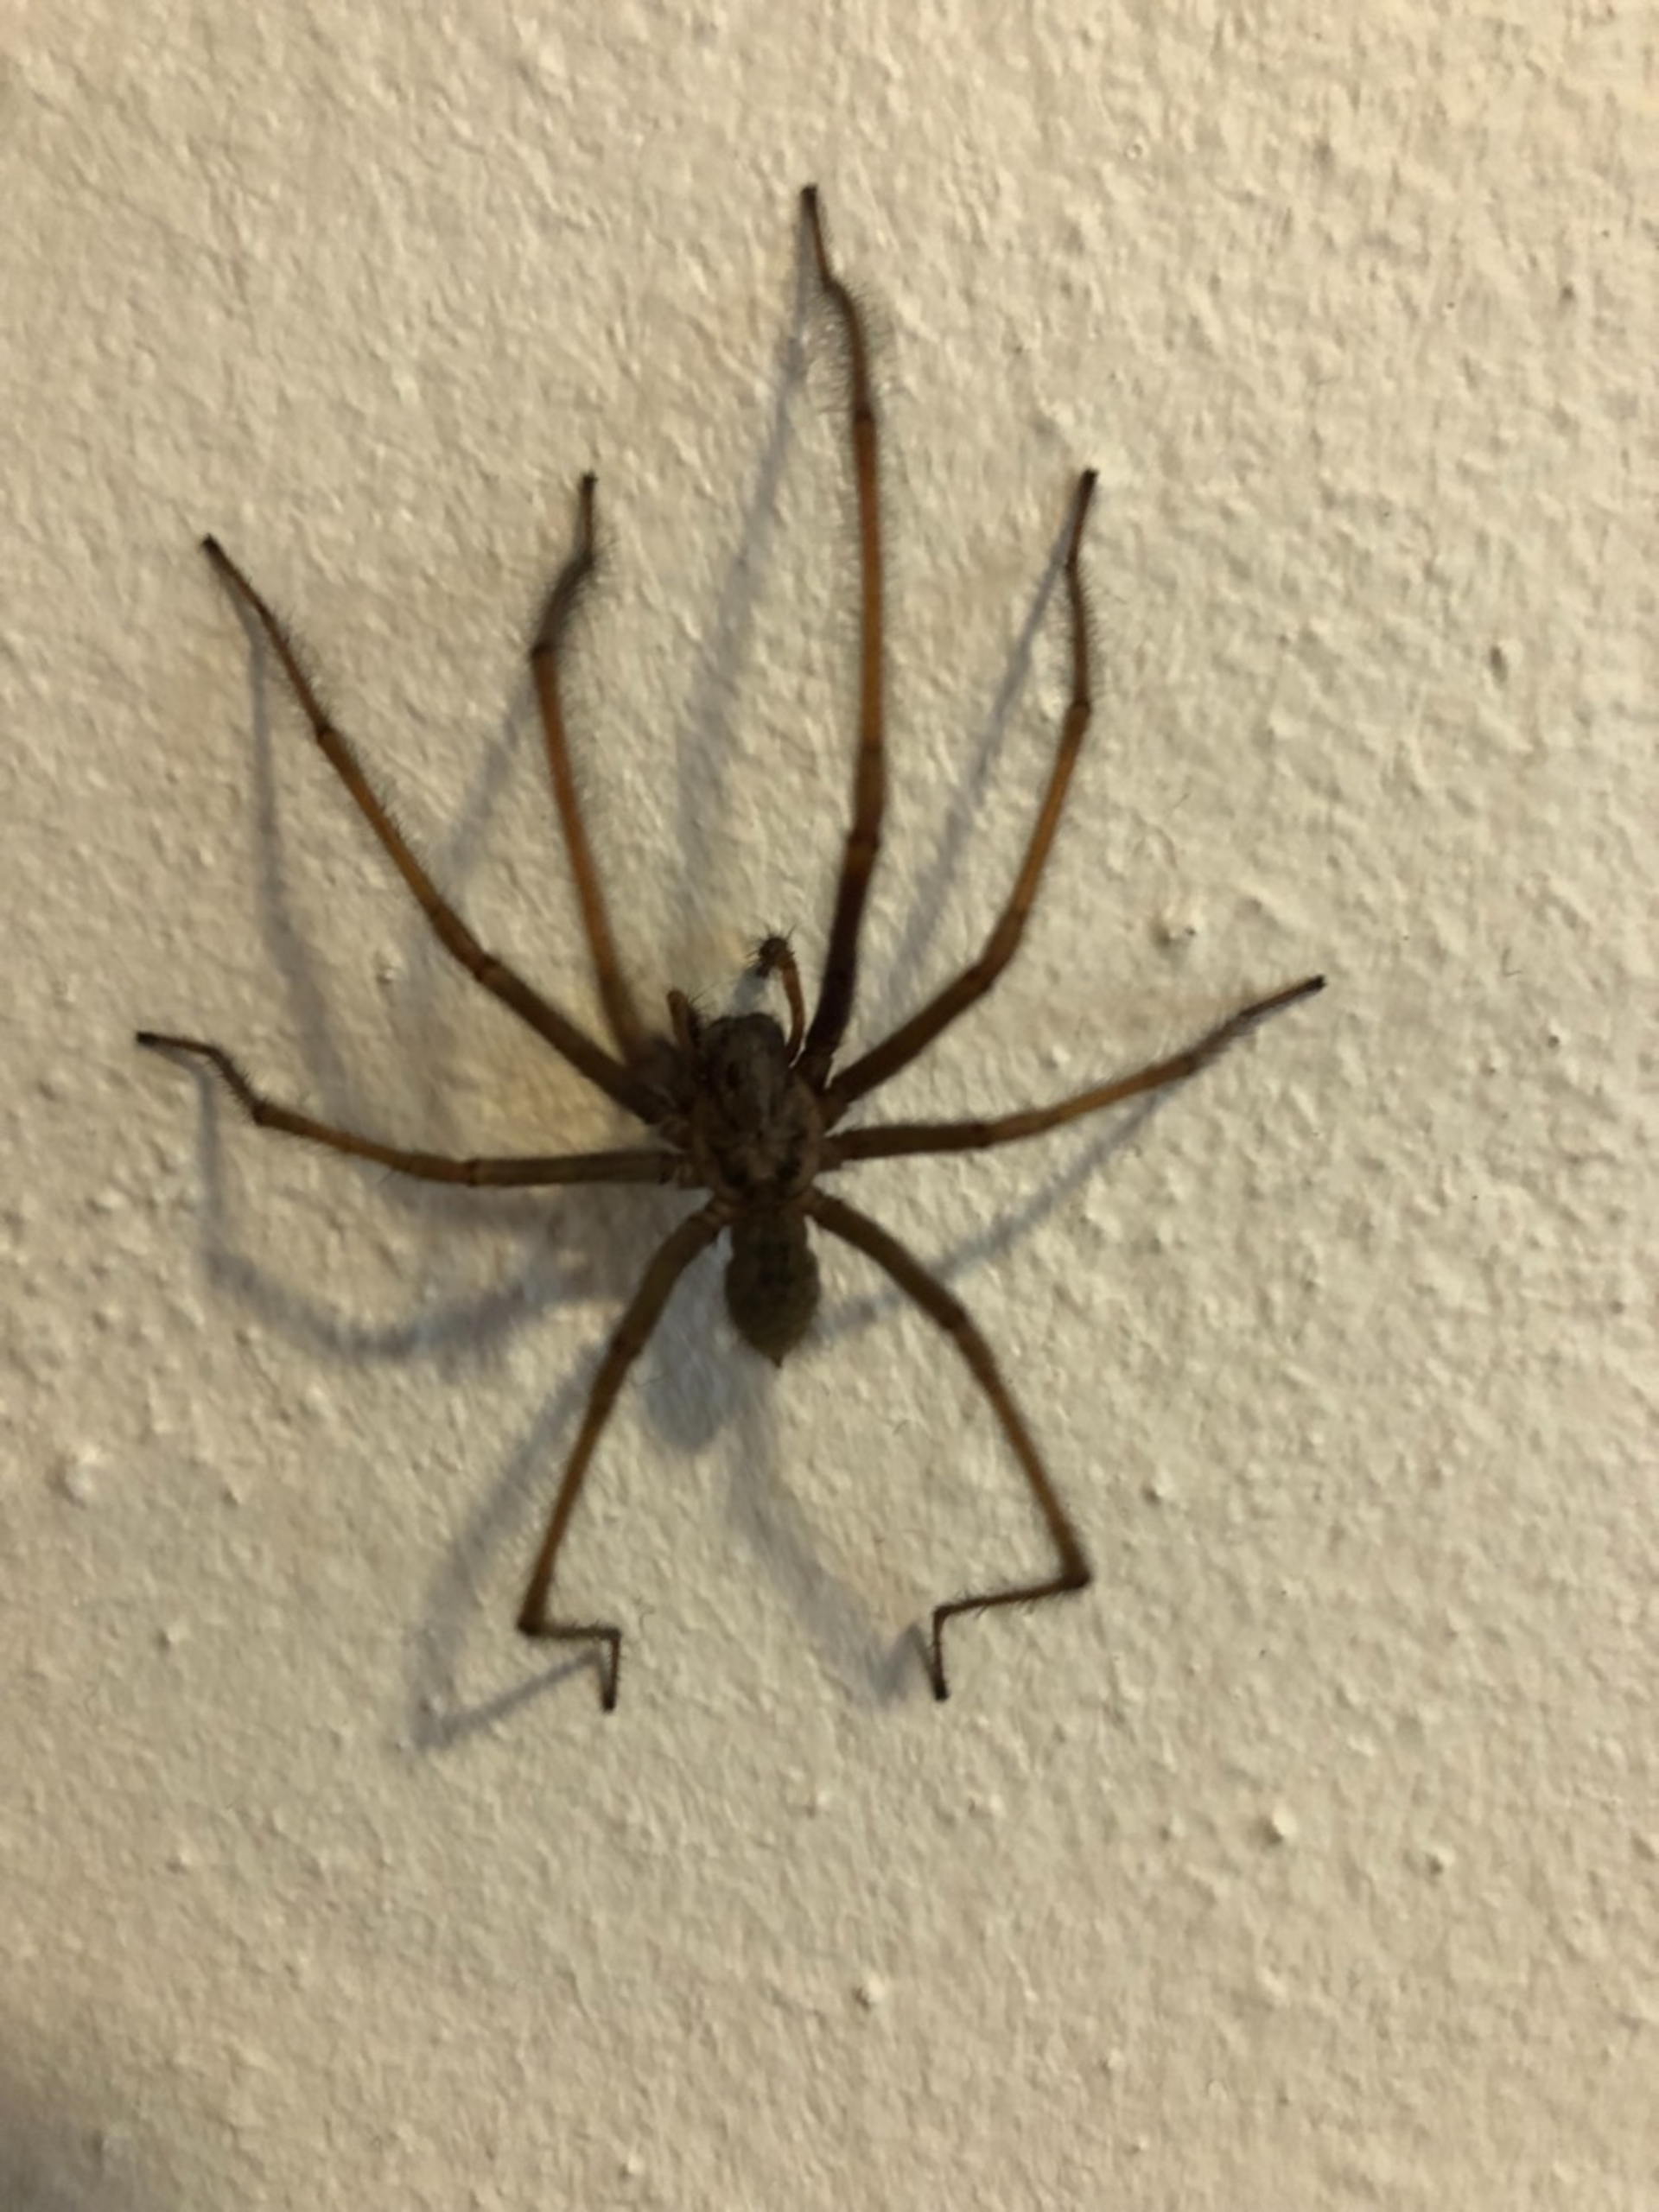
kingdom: Animalia
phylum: Arthropoda
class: Arachnida
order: Araneae
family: Agelenidae
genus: Eratigena
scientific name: Eratigena atrica
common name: Stor husedderkop
